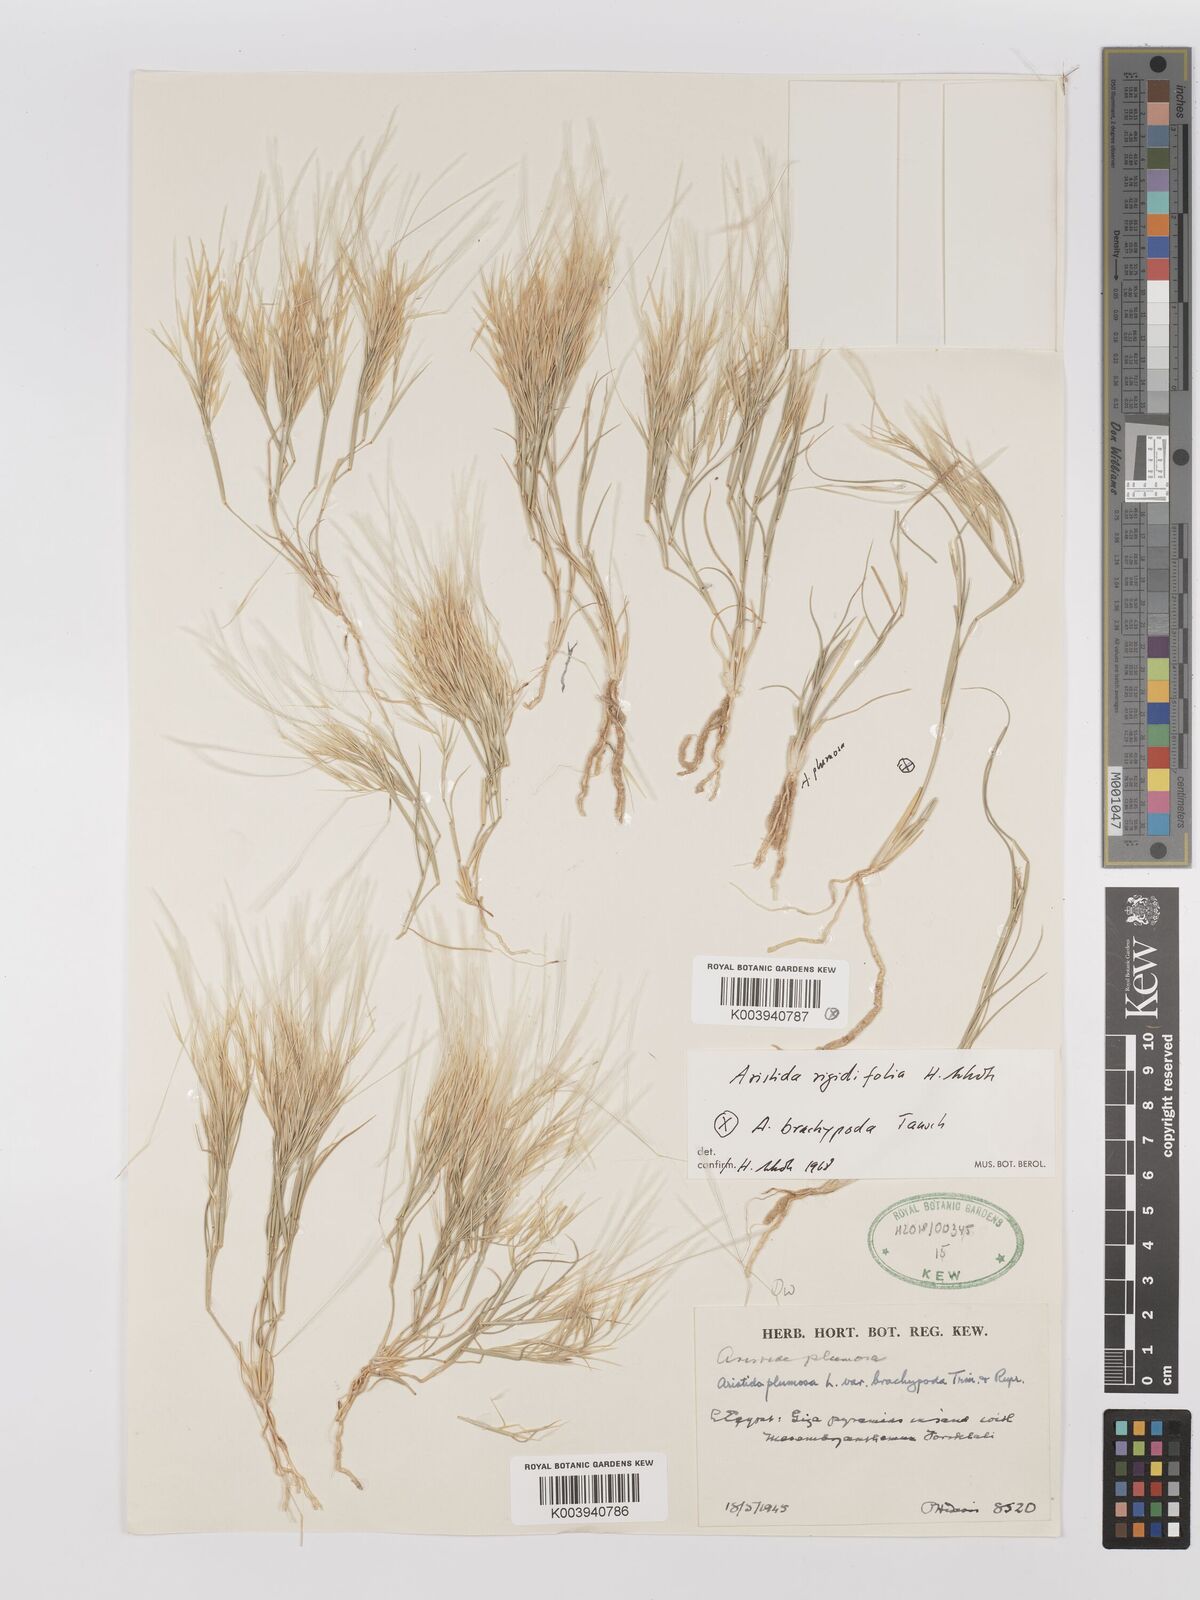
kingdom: Plantae
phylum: Tracheophyta
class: Liliopsida
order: Poales
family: Poaceae
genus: Stipagrostis
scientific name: Stipagrostis rigidifolia
